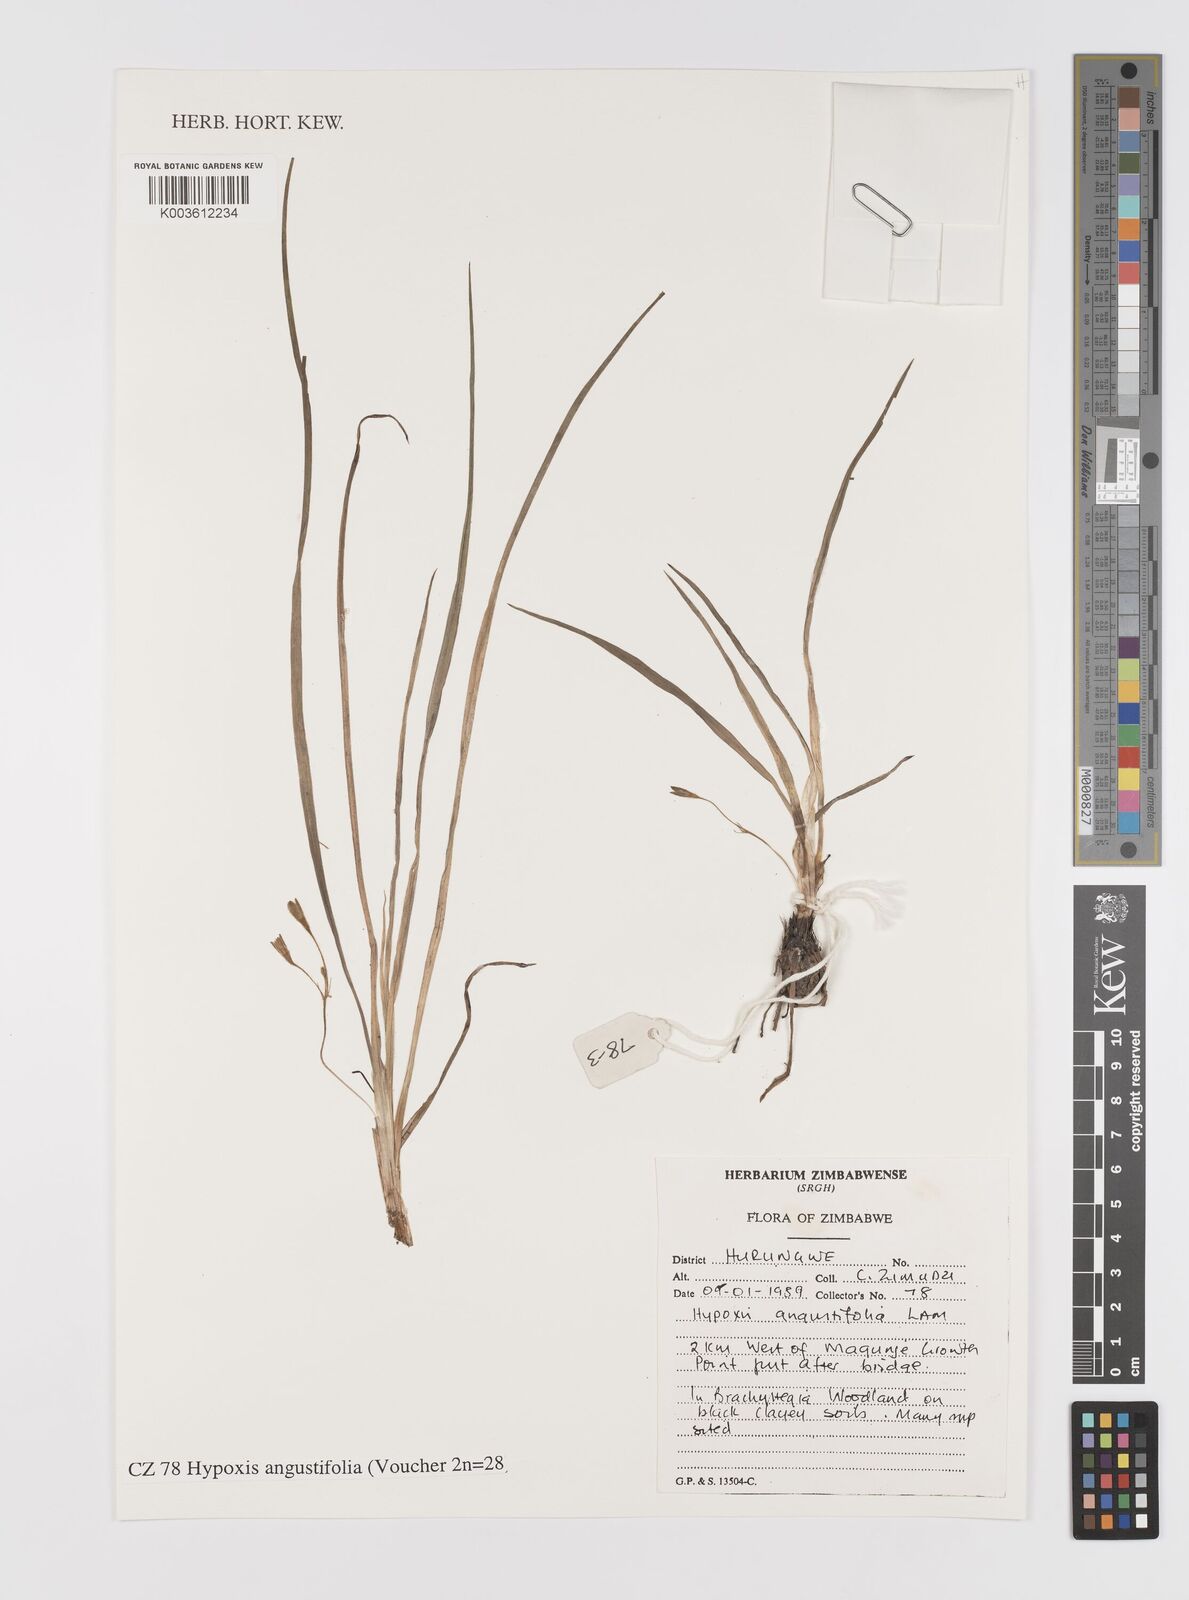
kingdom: Plantae
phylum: Tracheophyta
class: Liliopsida
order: Asparagales
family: Hypoxidaceae
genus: Hypoxis
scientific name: Hypoxis angustifolia
